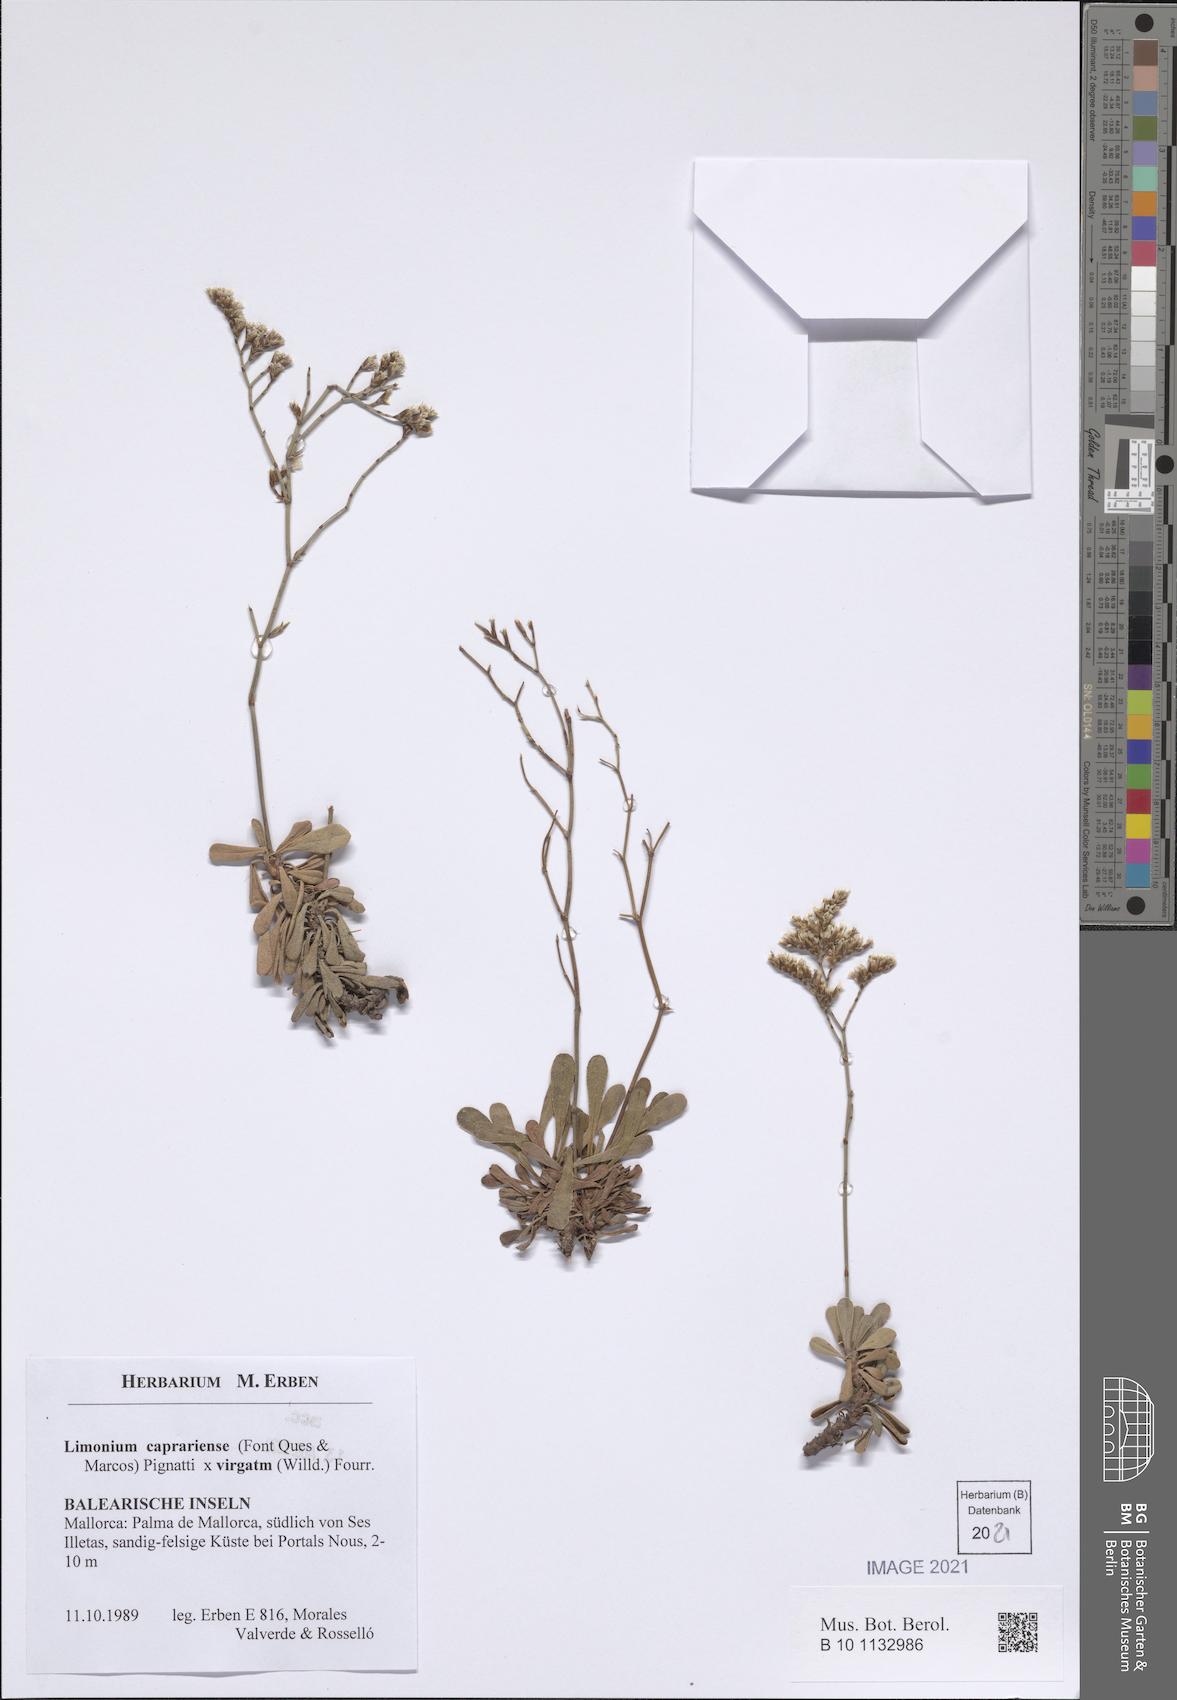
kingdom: Plantae
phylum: Tracheophyta
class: Magnoliopsida
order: Caryophyllales
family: Plumbaginaceae
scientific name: Plumbaginaceae
